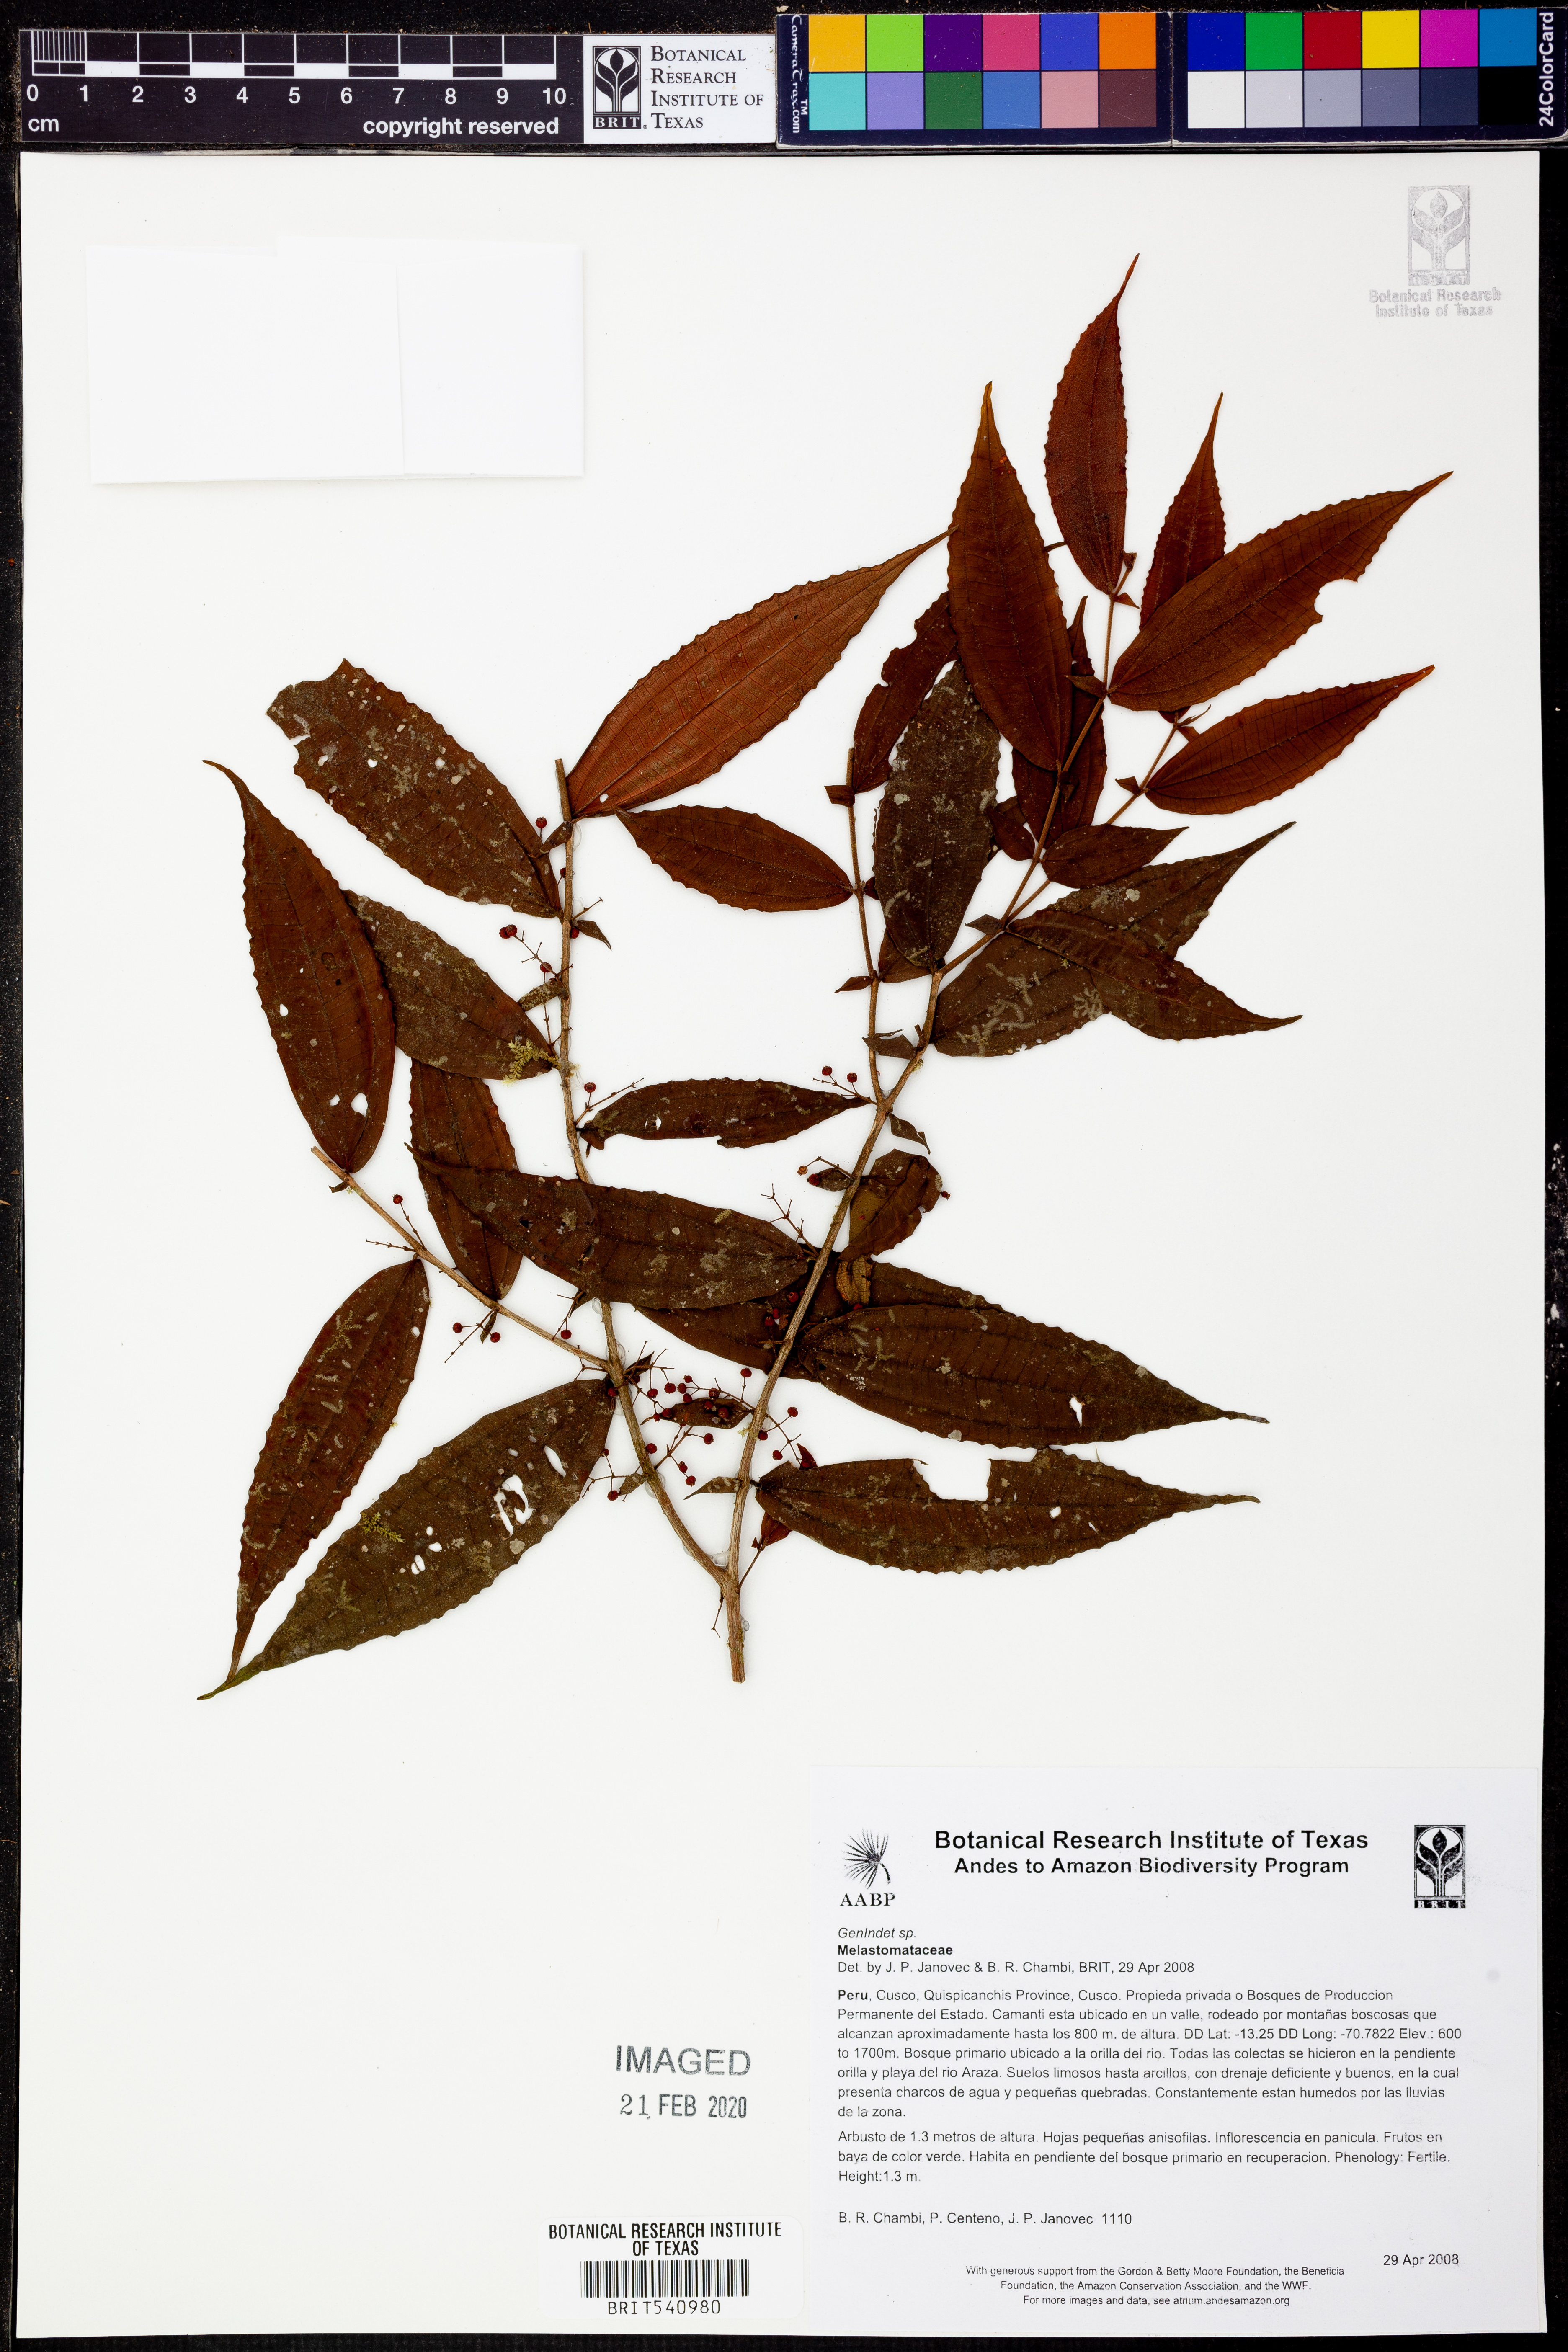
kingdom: Plantae
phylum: Tracheophyta
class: Magnoliopsida
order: Myrtales
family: Melastomataceae
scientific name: Melastomataceae
